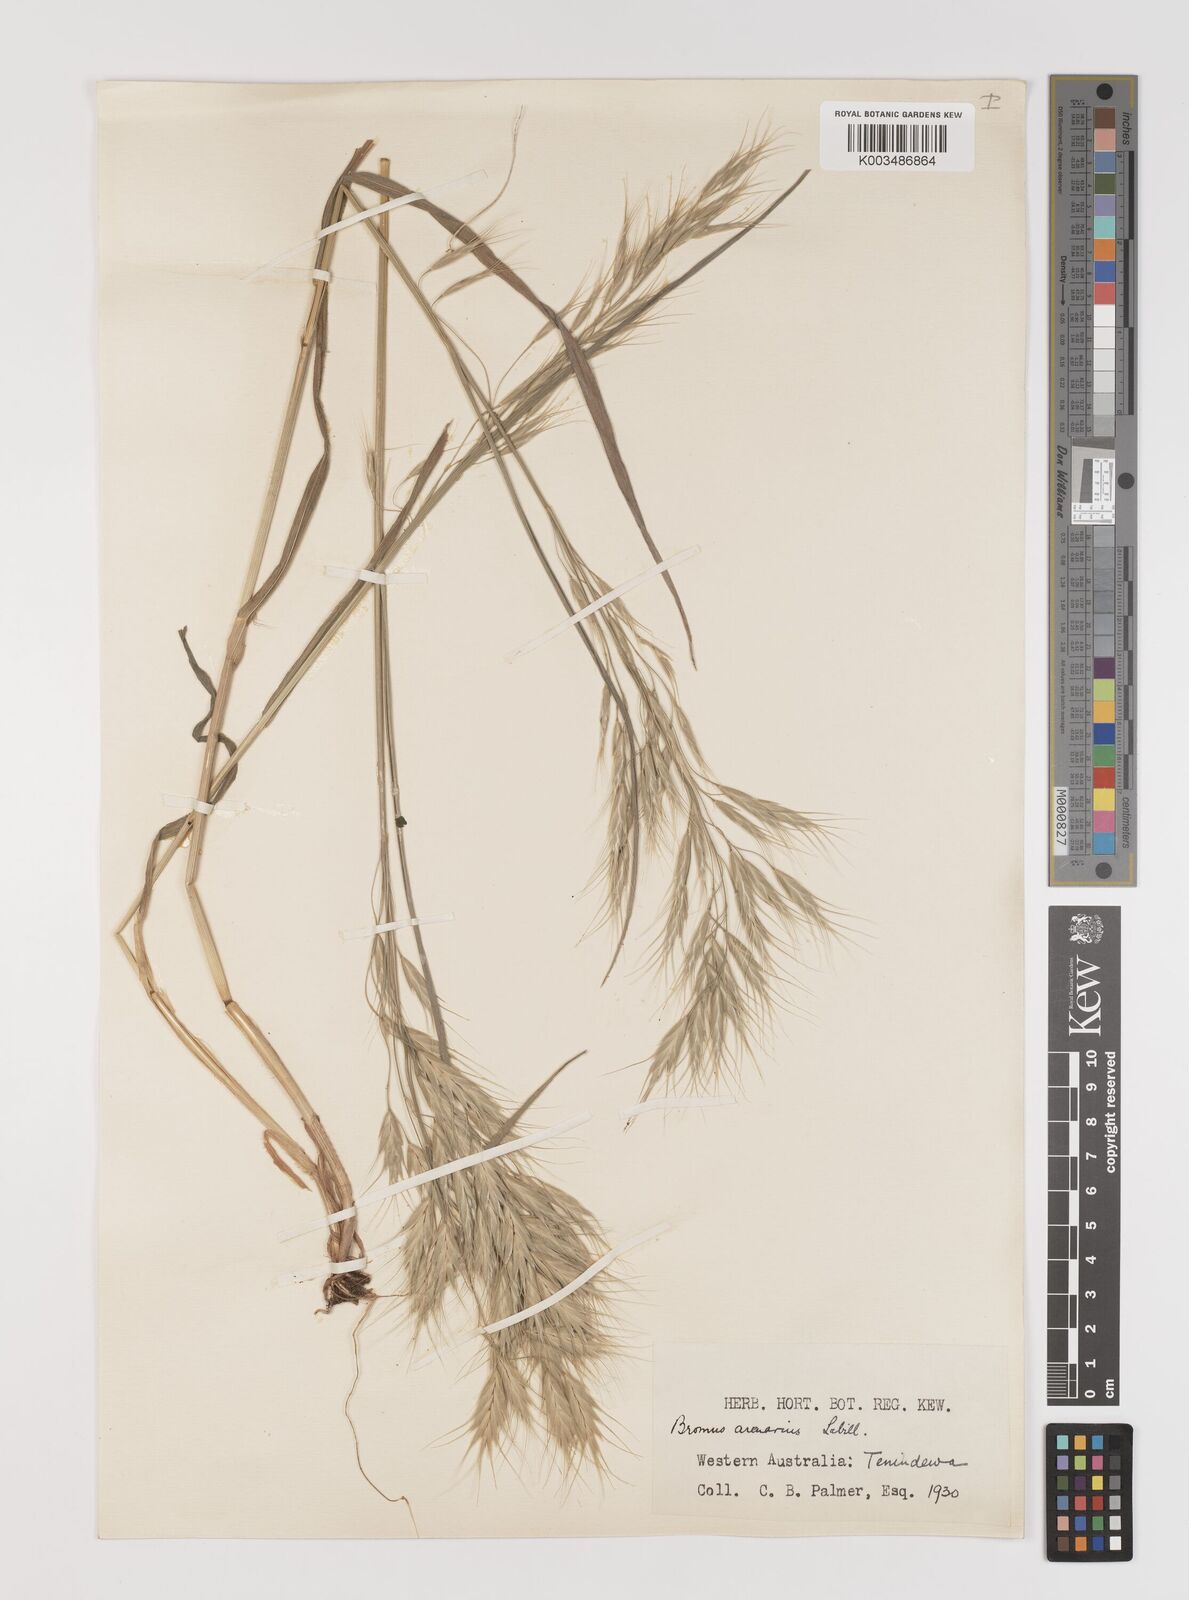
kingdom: Plantae
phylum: Tracheophyta
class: Liliopsida
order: Poales
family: Poaceae
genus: Bromus
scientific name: Bromus arenarius
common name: Australian brome
